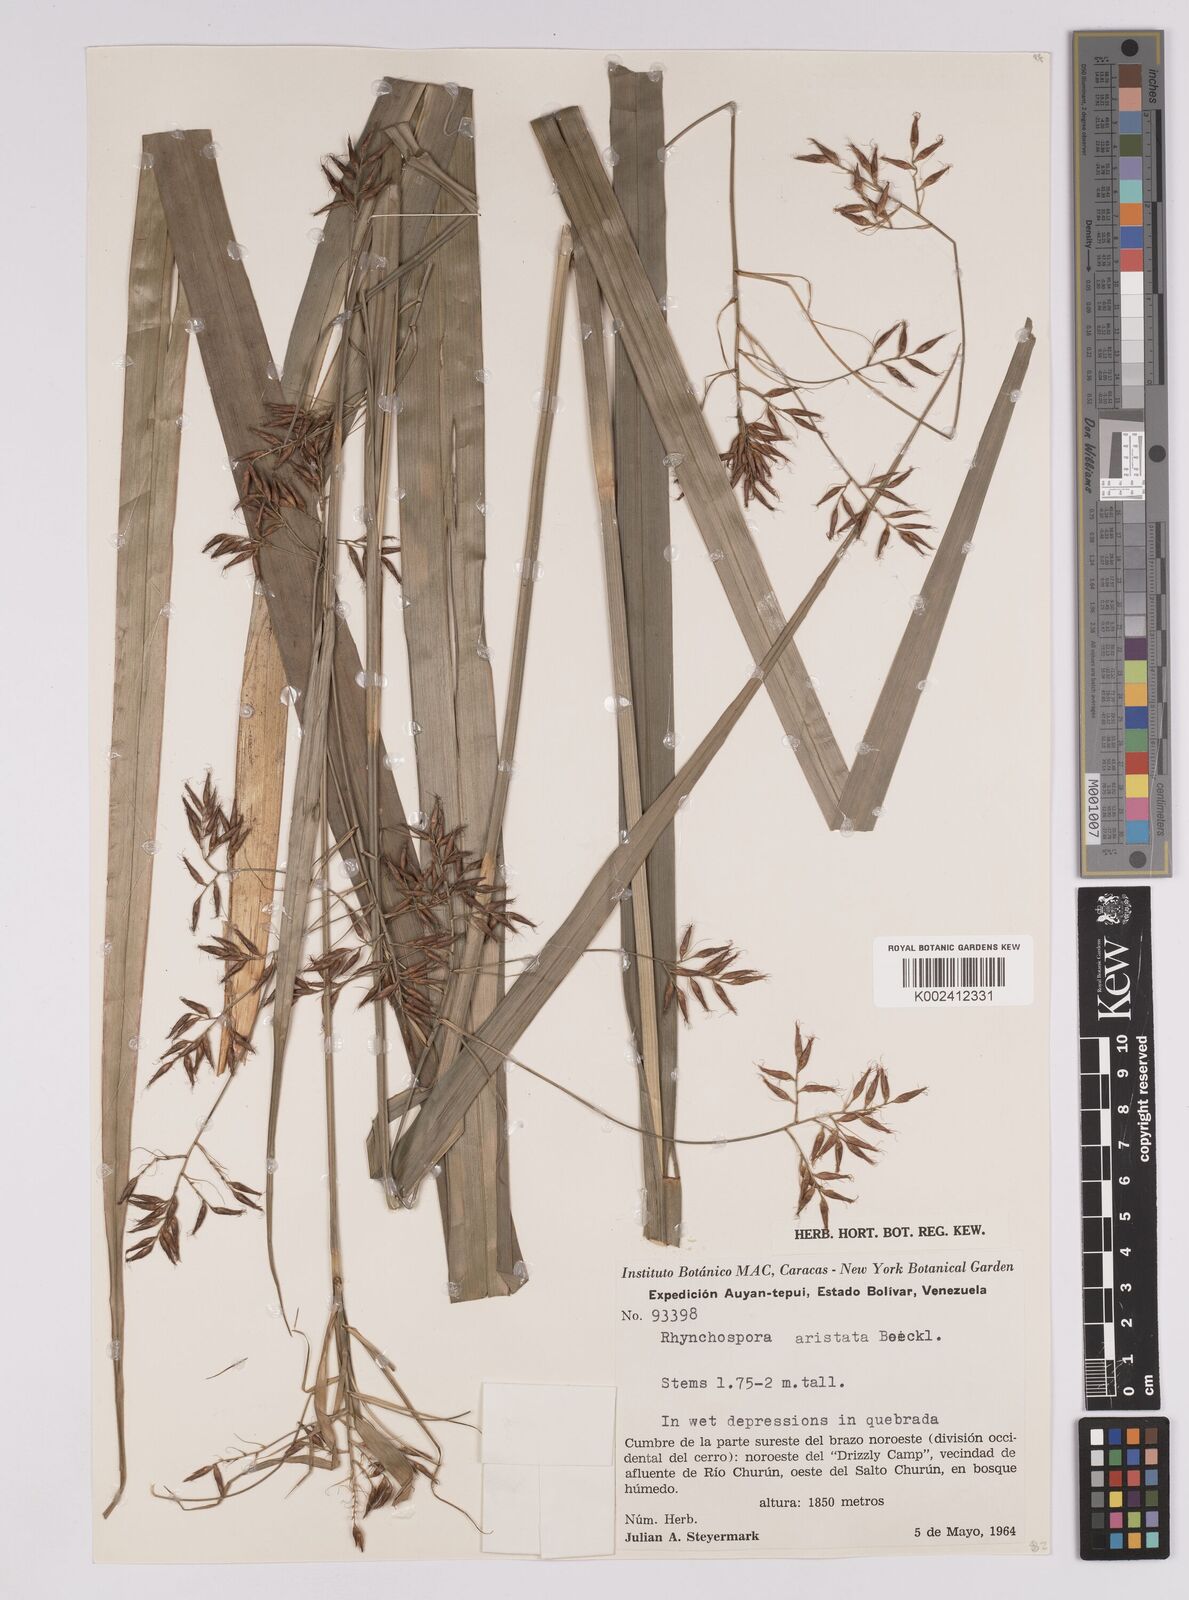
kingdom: Plantae
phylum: Tracheophyta
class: Liliopsida
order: Poales
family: Cyperaceae
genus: Rhynchospora
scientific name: Rhynchospora aristata
